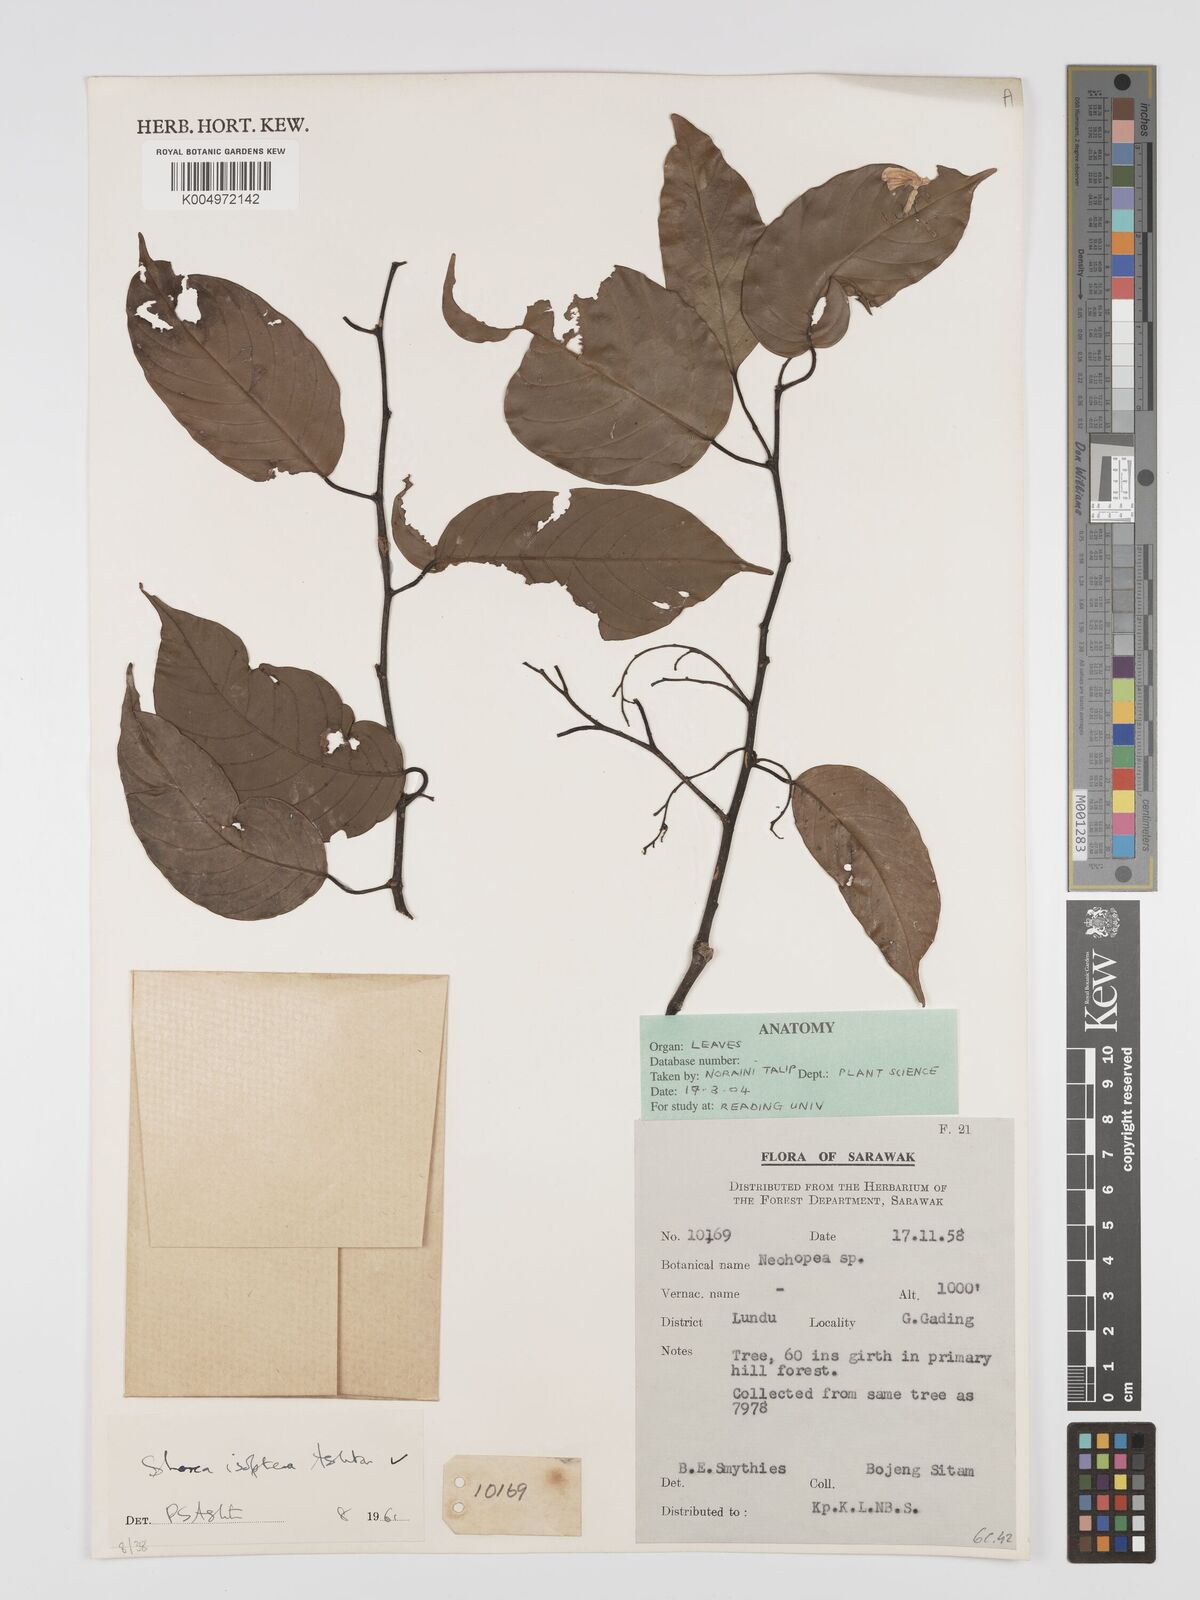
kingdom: Plantae
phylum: Tracheophyta
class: Magnoliopsida
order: Malvales
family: Dipterocarpaceae
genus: Neohopea
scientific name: Neohopea isoptera
